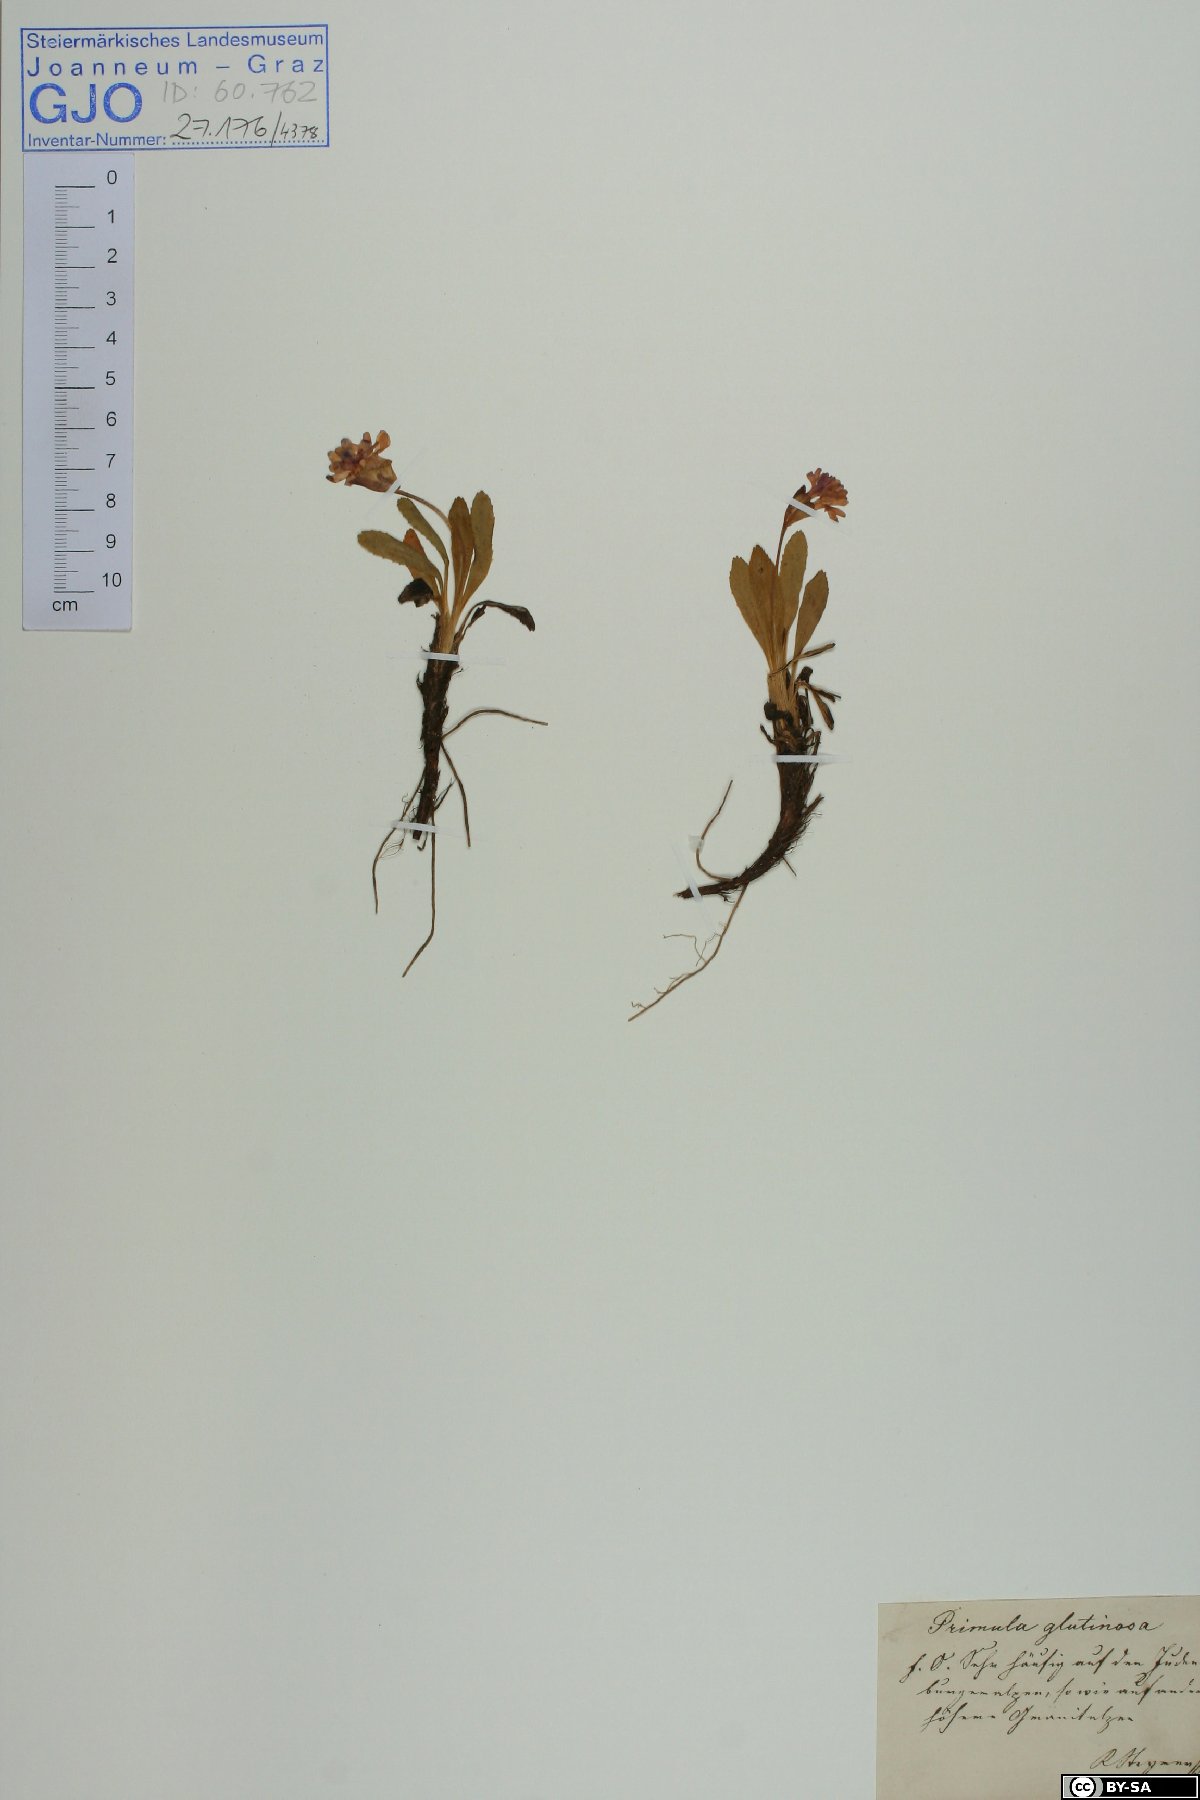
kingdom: Plantae
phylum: Tracheophyta
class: Magnoliopsida
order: Ericales
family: Primulaceae
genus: Primula
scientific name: Primula glutinosa
